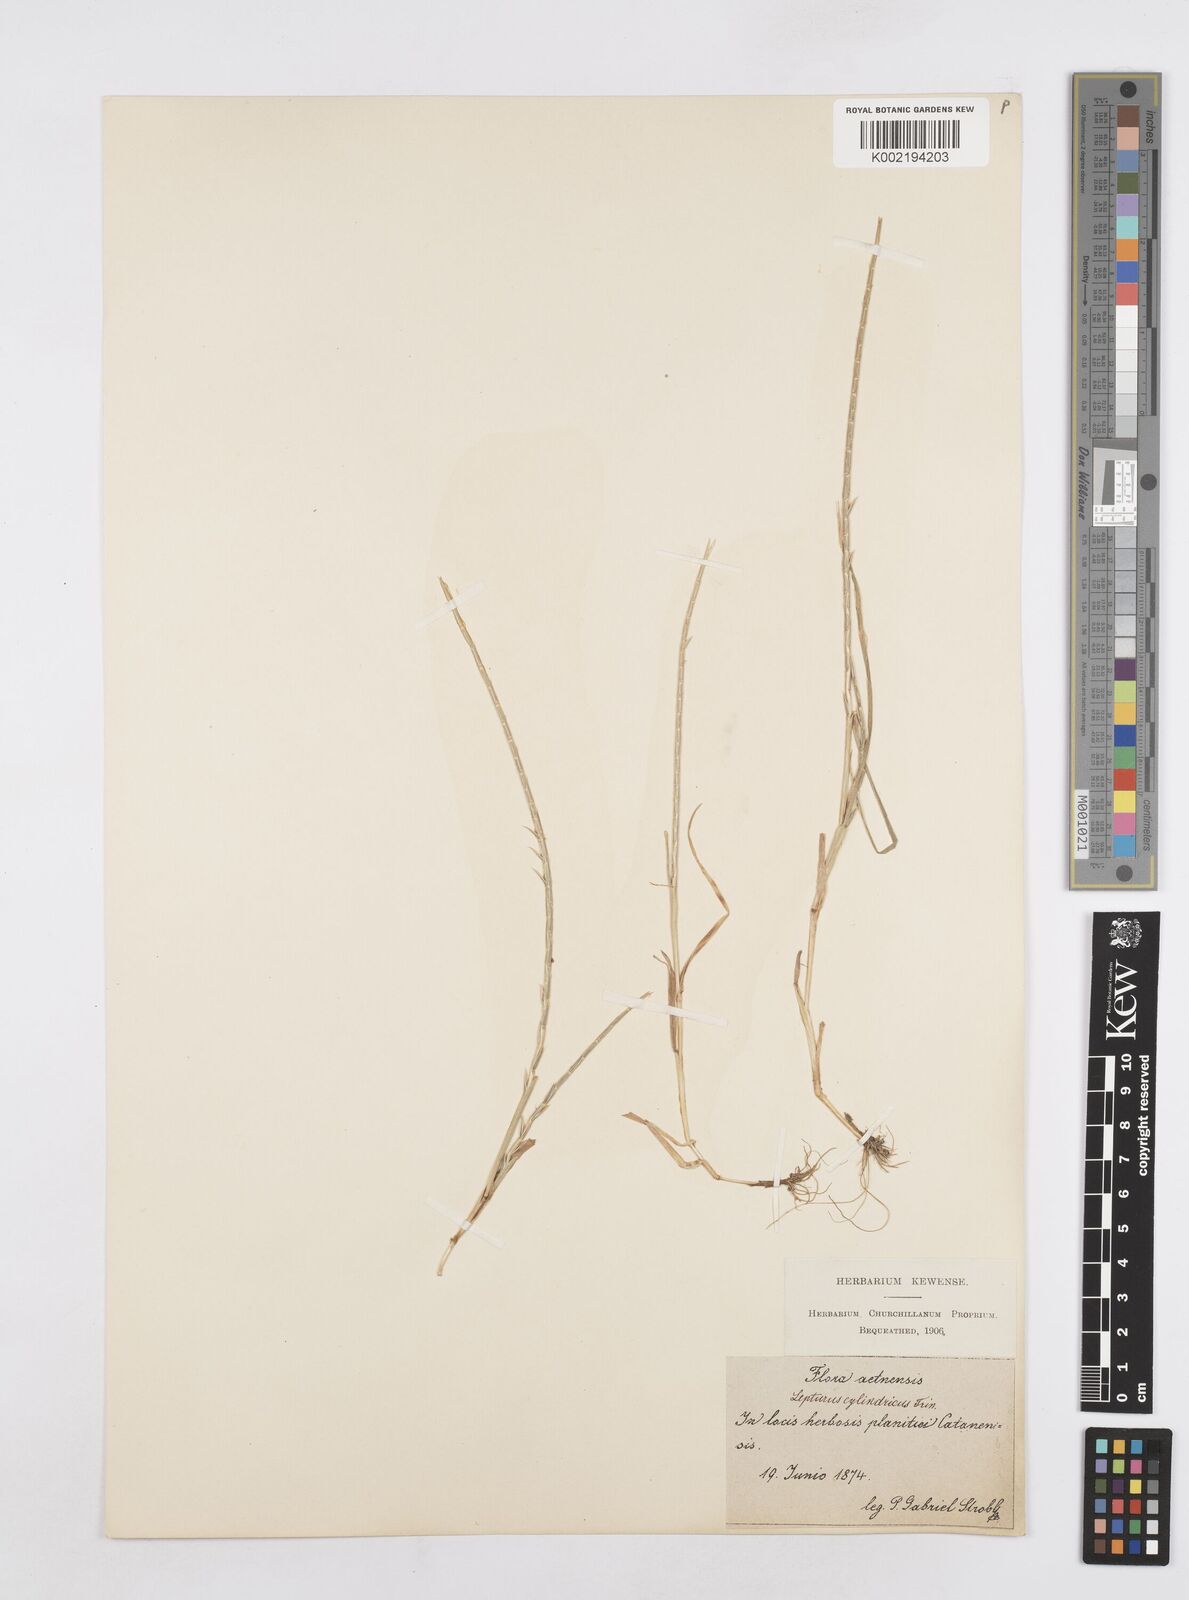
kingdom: Plantae
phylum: Tracheophyta
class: Liliopsida
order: Poales
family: Poaceae
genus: Parapholis
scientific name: Parapholis cylindrica
